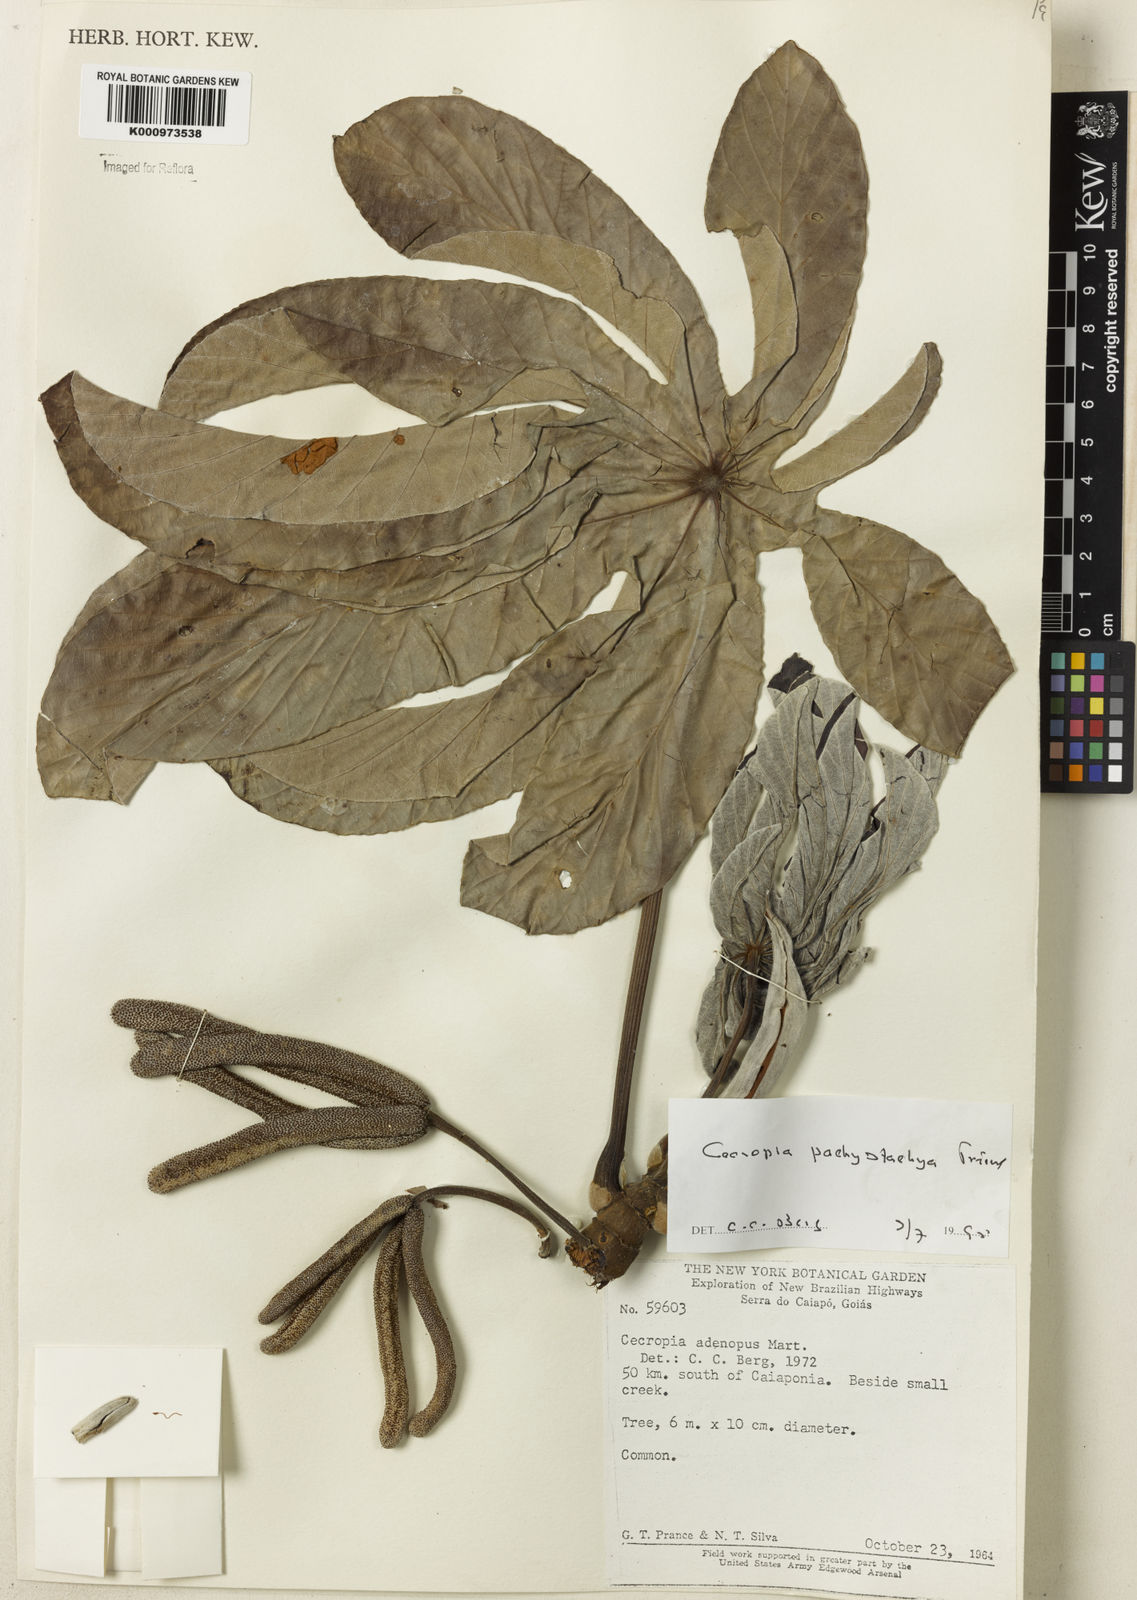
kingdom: Plantae
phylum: Tracheophyta
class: Magnoliopsida
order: Rosales
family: Urticaceae
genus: Cecropia
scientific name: Cecropia
